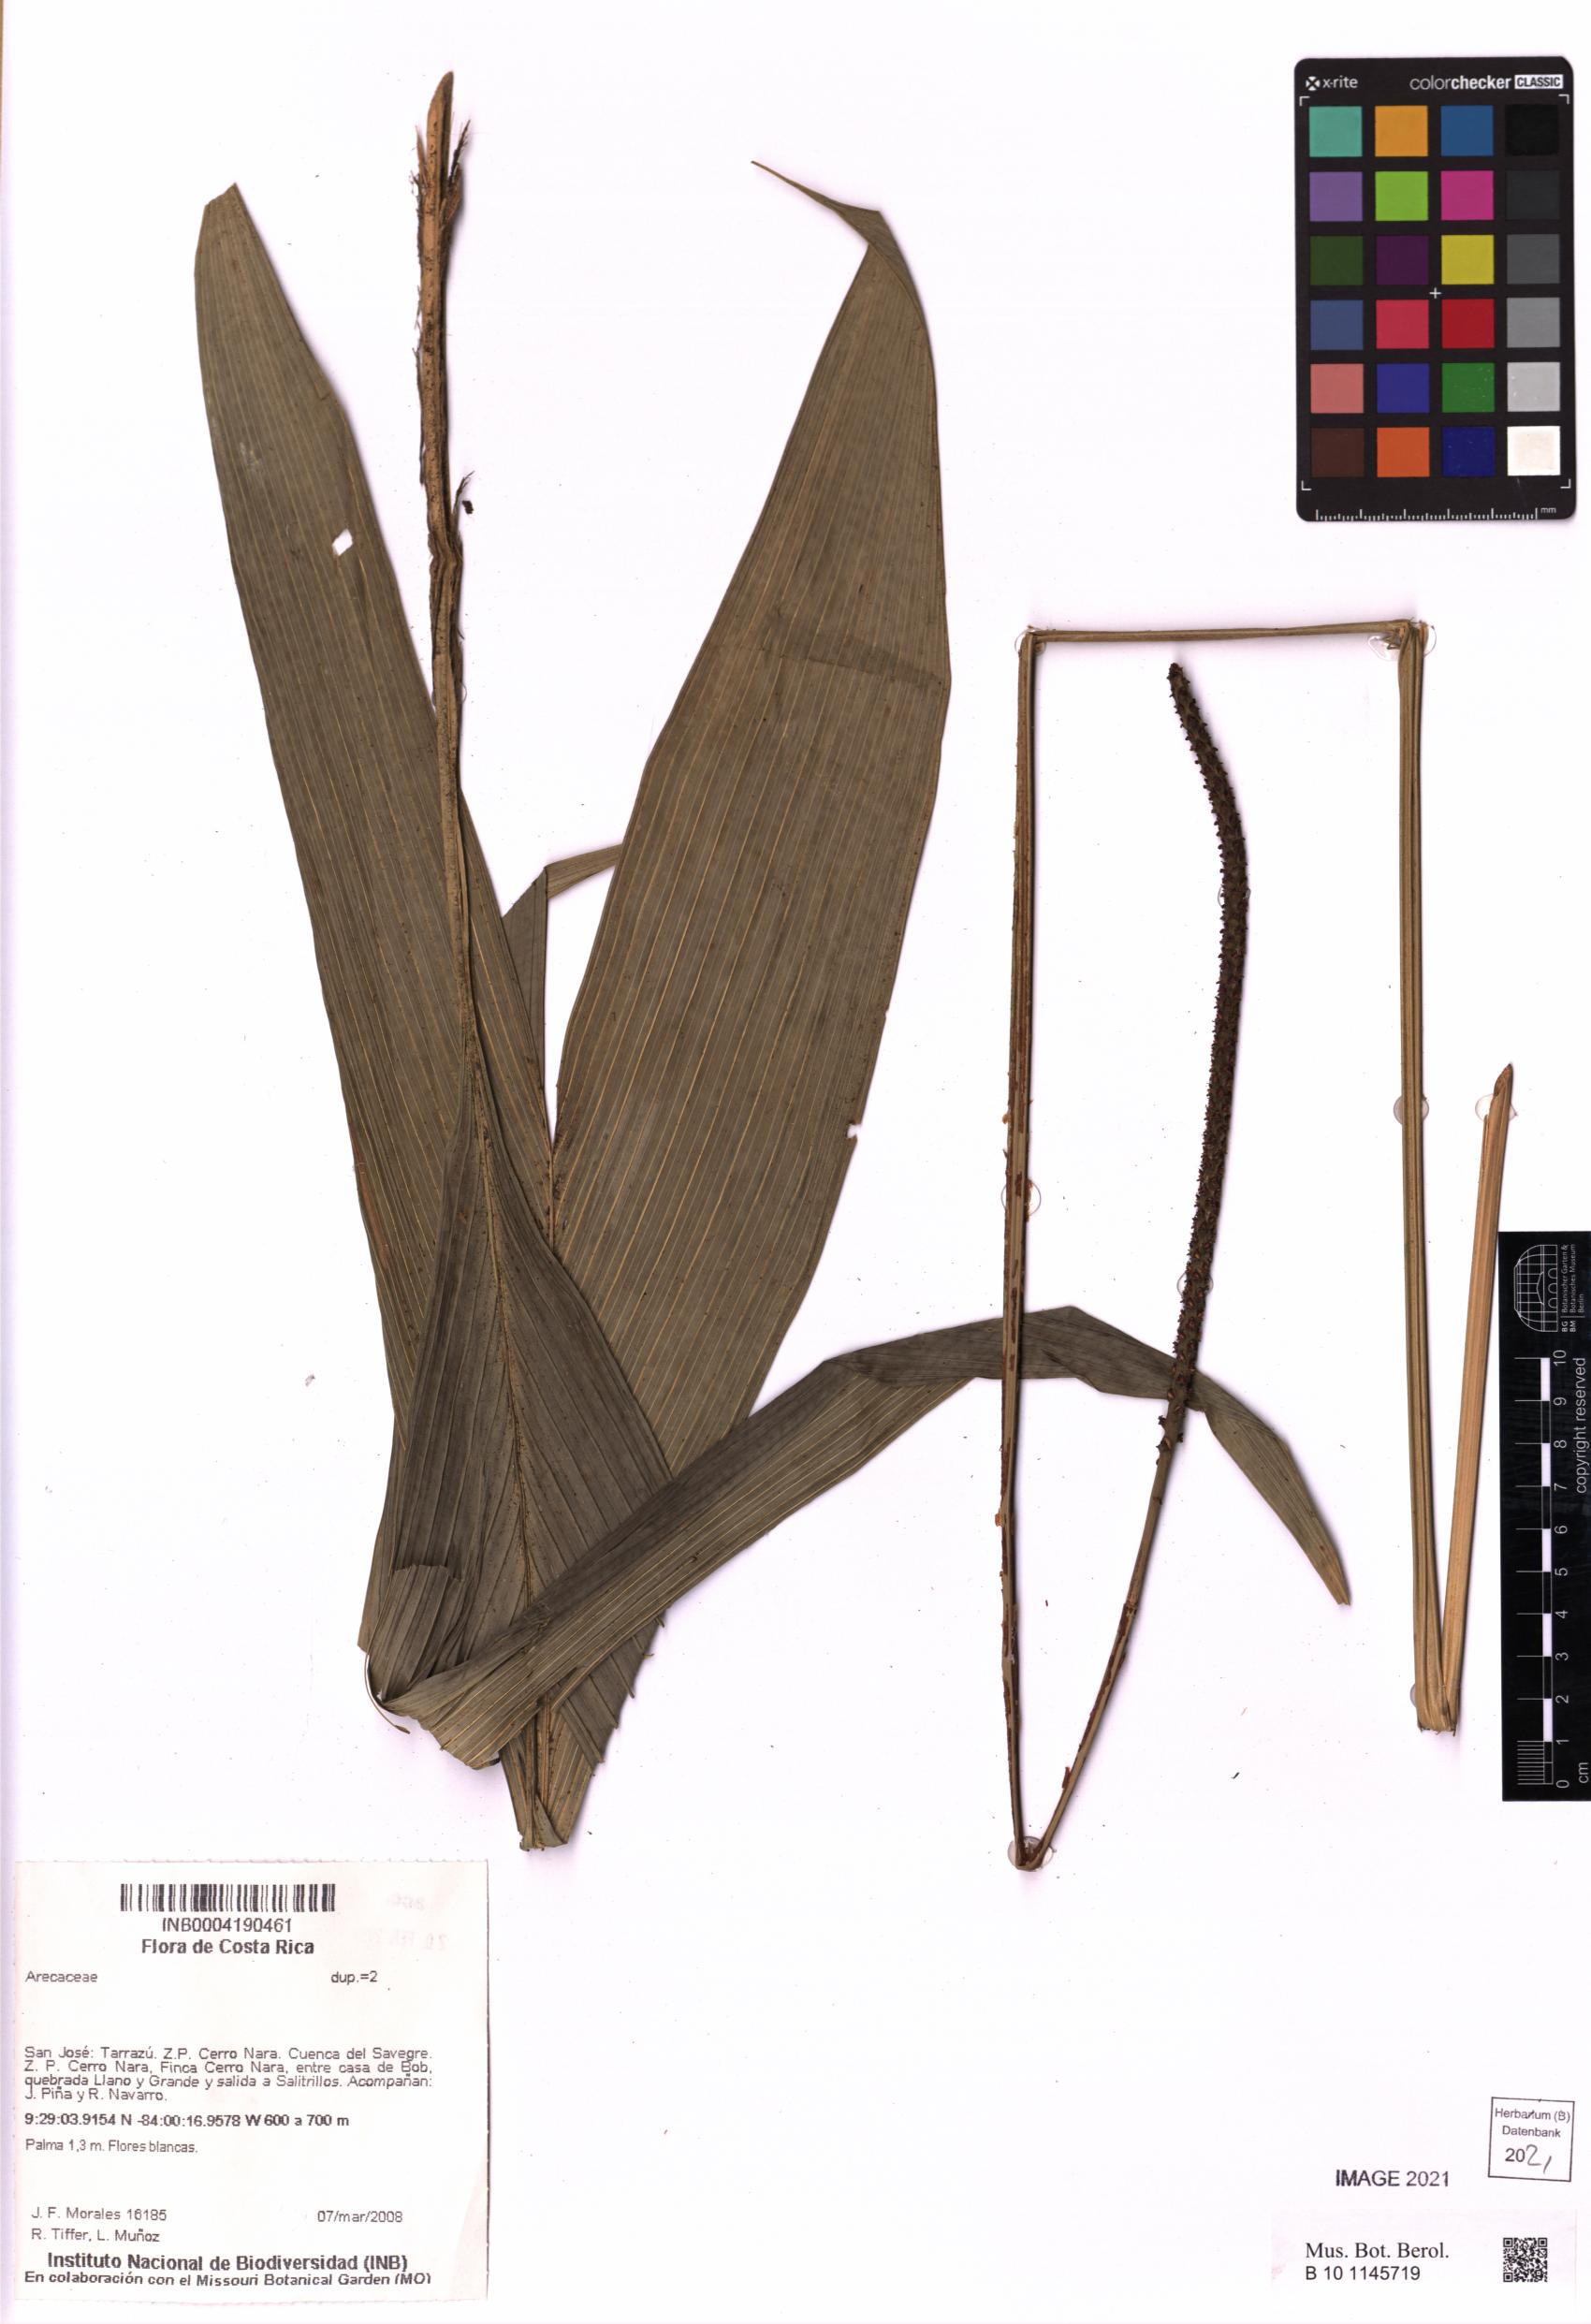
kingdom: Plantae
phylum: Tracheophyta
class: Liliopsida
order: Arecales
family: Arecaceae
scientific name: Arecaceae
